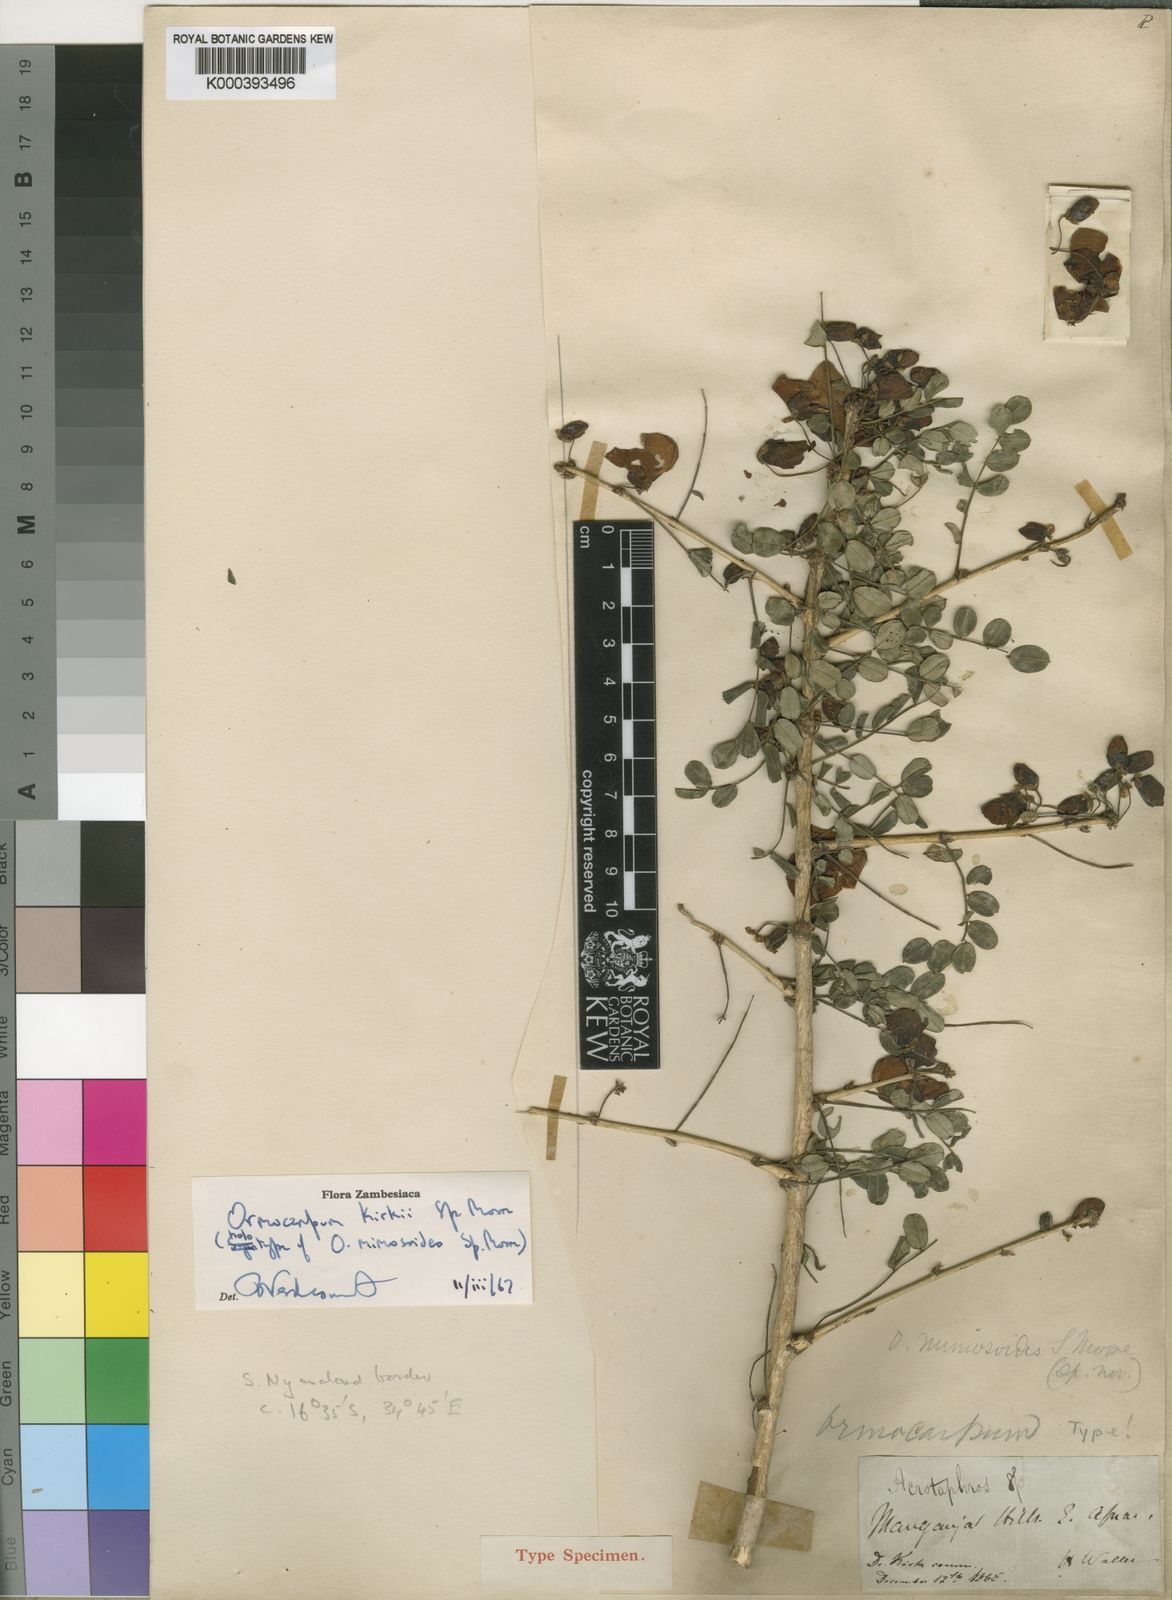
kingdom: Plantae
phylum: Tracheophyta
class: Magnoliopsida
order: Fabales
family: Fabaceae
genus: Ormocarpum
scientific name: Ormocarpum kirkii
